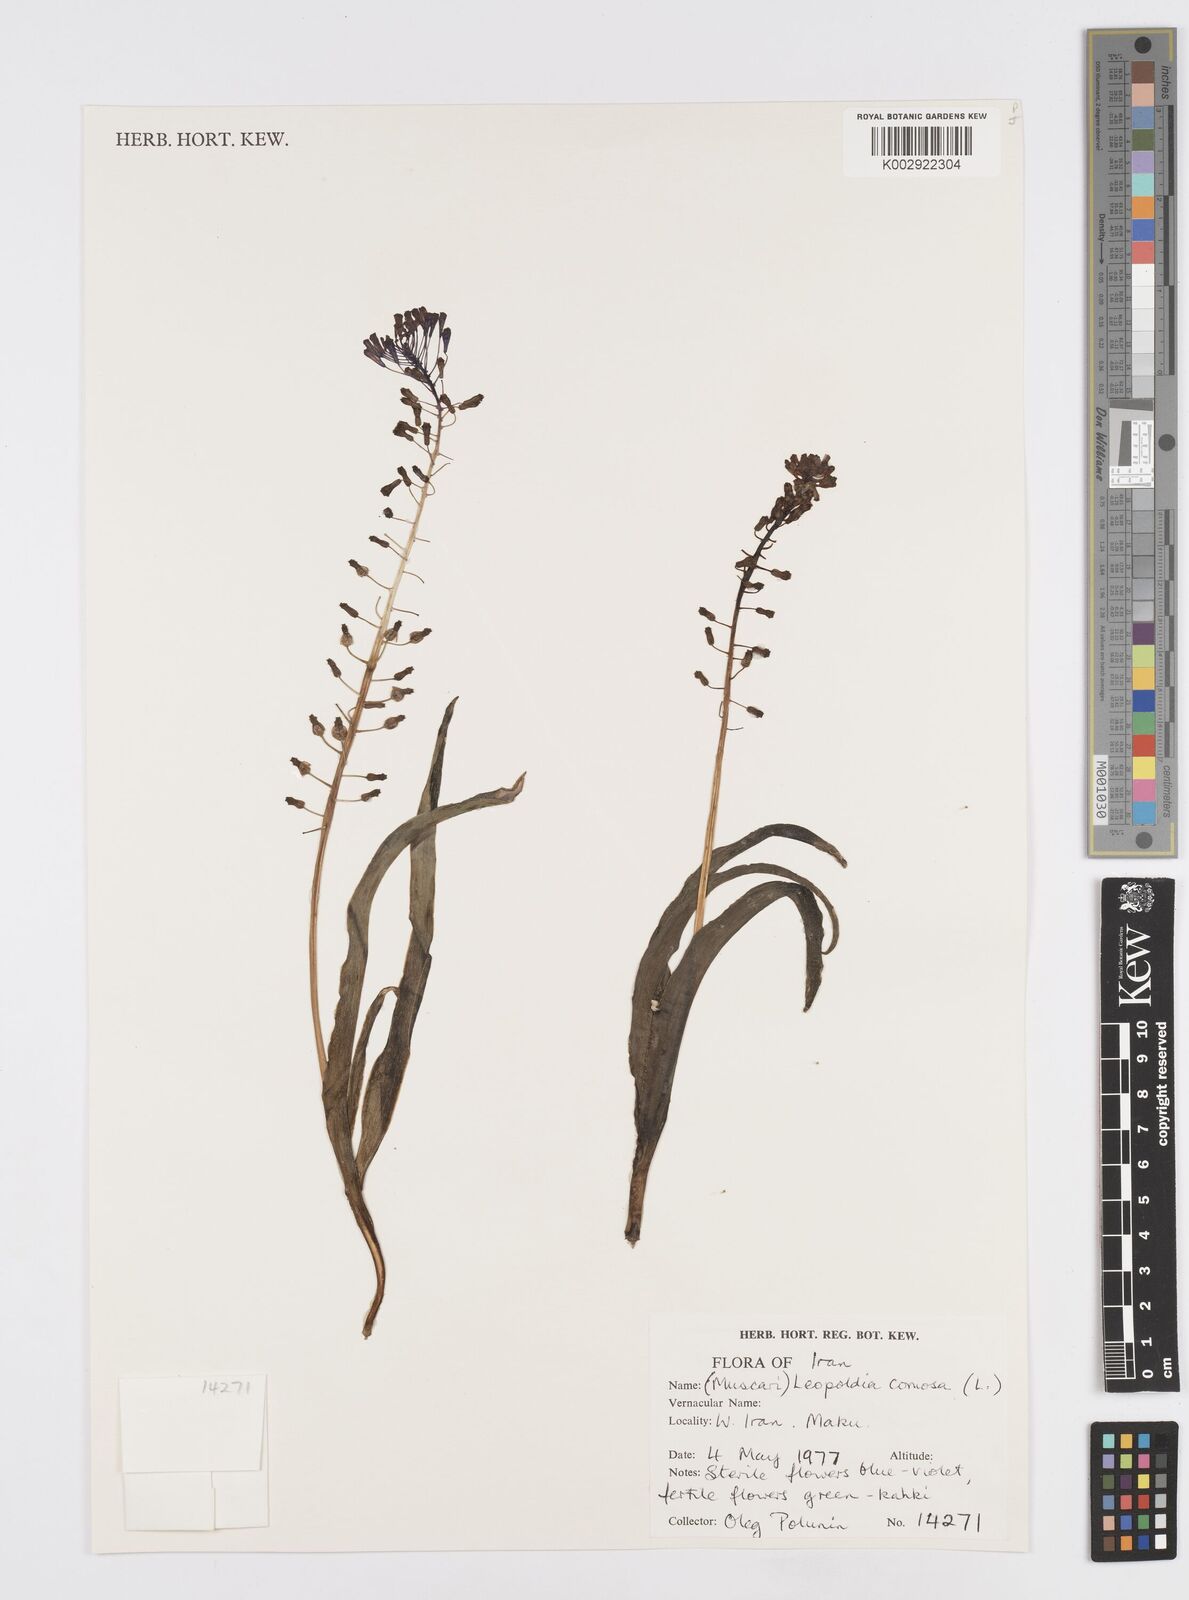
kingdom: Plantae
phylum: Tracheophyta
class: Liliopsida
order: Asparagales
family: Asparagaceae
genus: Muscari
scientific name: Muscari comosum
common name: Tassel hyacinth
